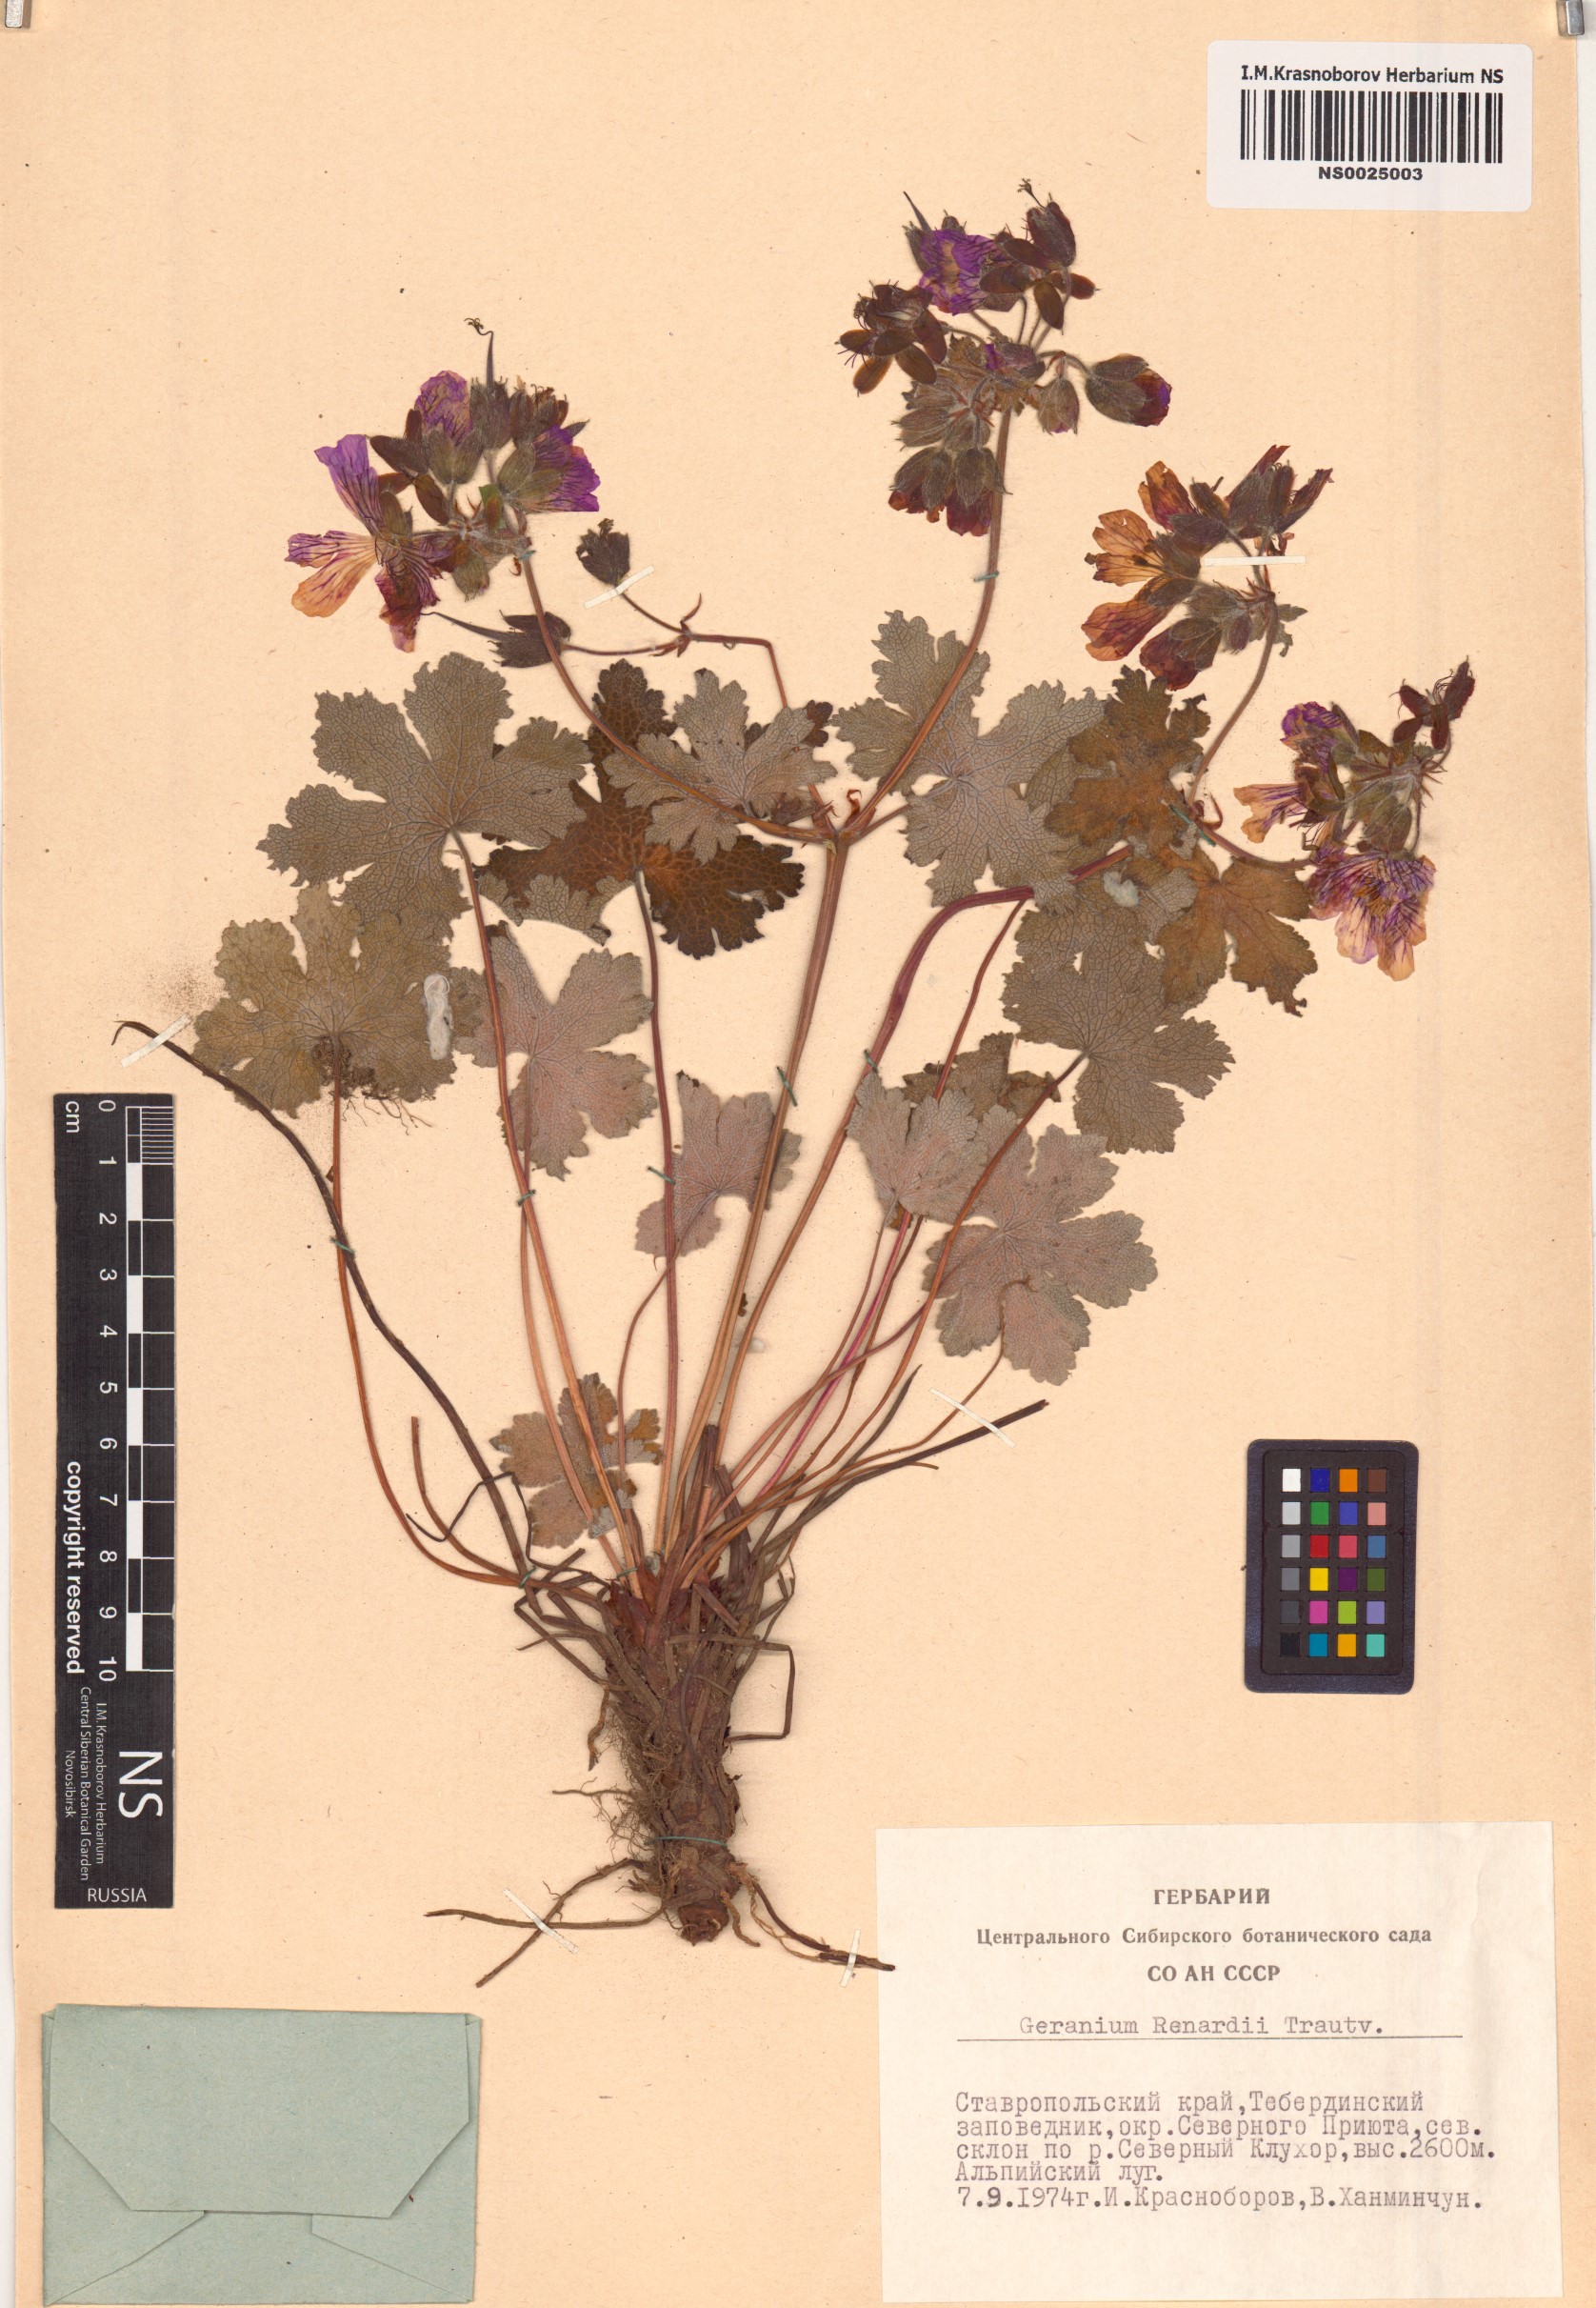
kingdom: Plantae
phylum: Tracheophyta
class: Magnoliopsida
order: Geraniales
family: Geraniaceae
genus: Geranium
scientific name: Geranium renardii
